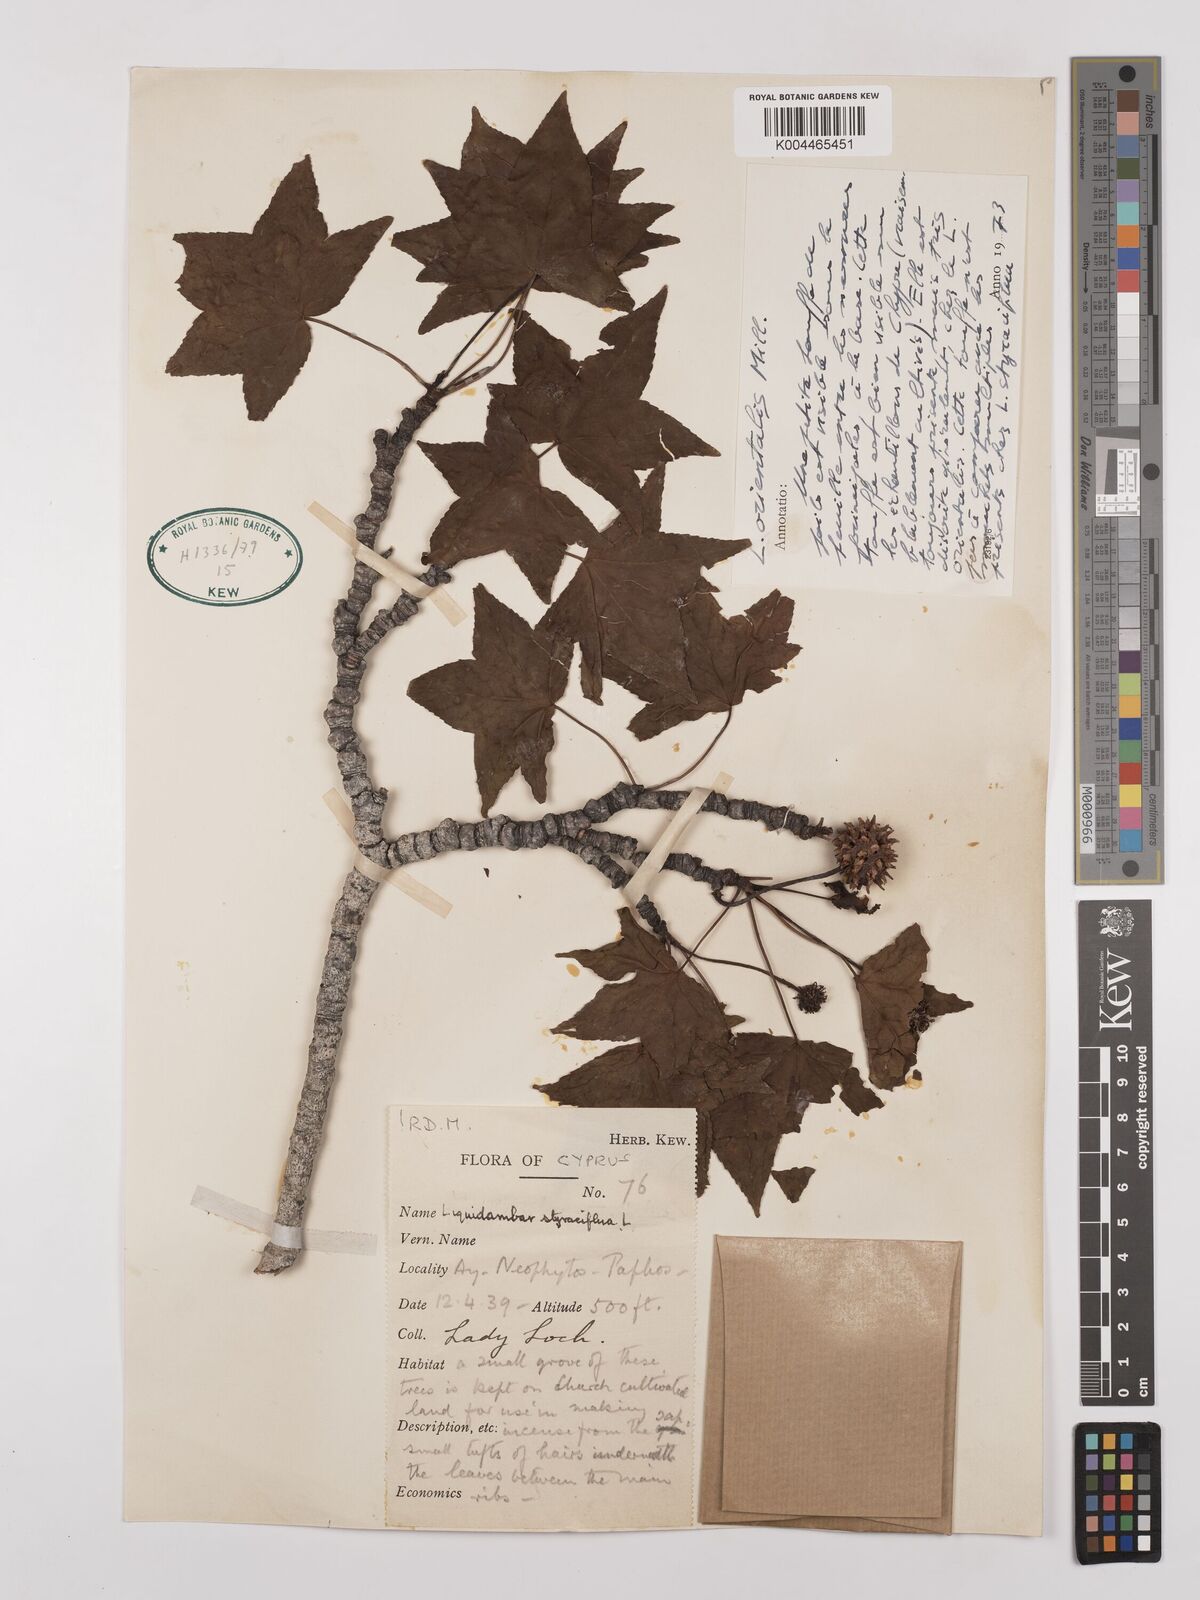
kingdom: Plantae
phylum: Tracheophyta
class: Magnoliopsida
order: Saxifragales
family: Altingiaceae
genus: Liquidambar
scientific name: Liquidambar styraciflua
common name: Sweet gum
